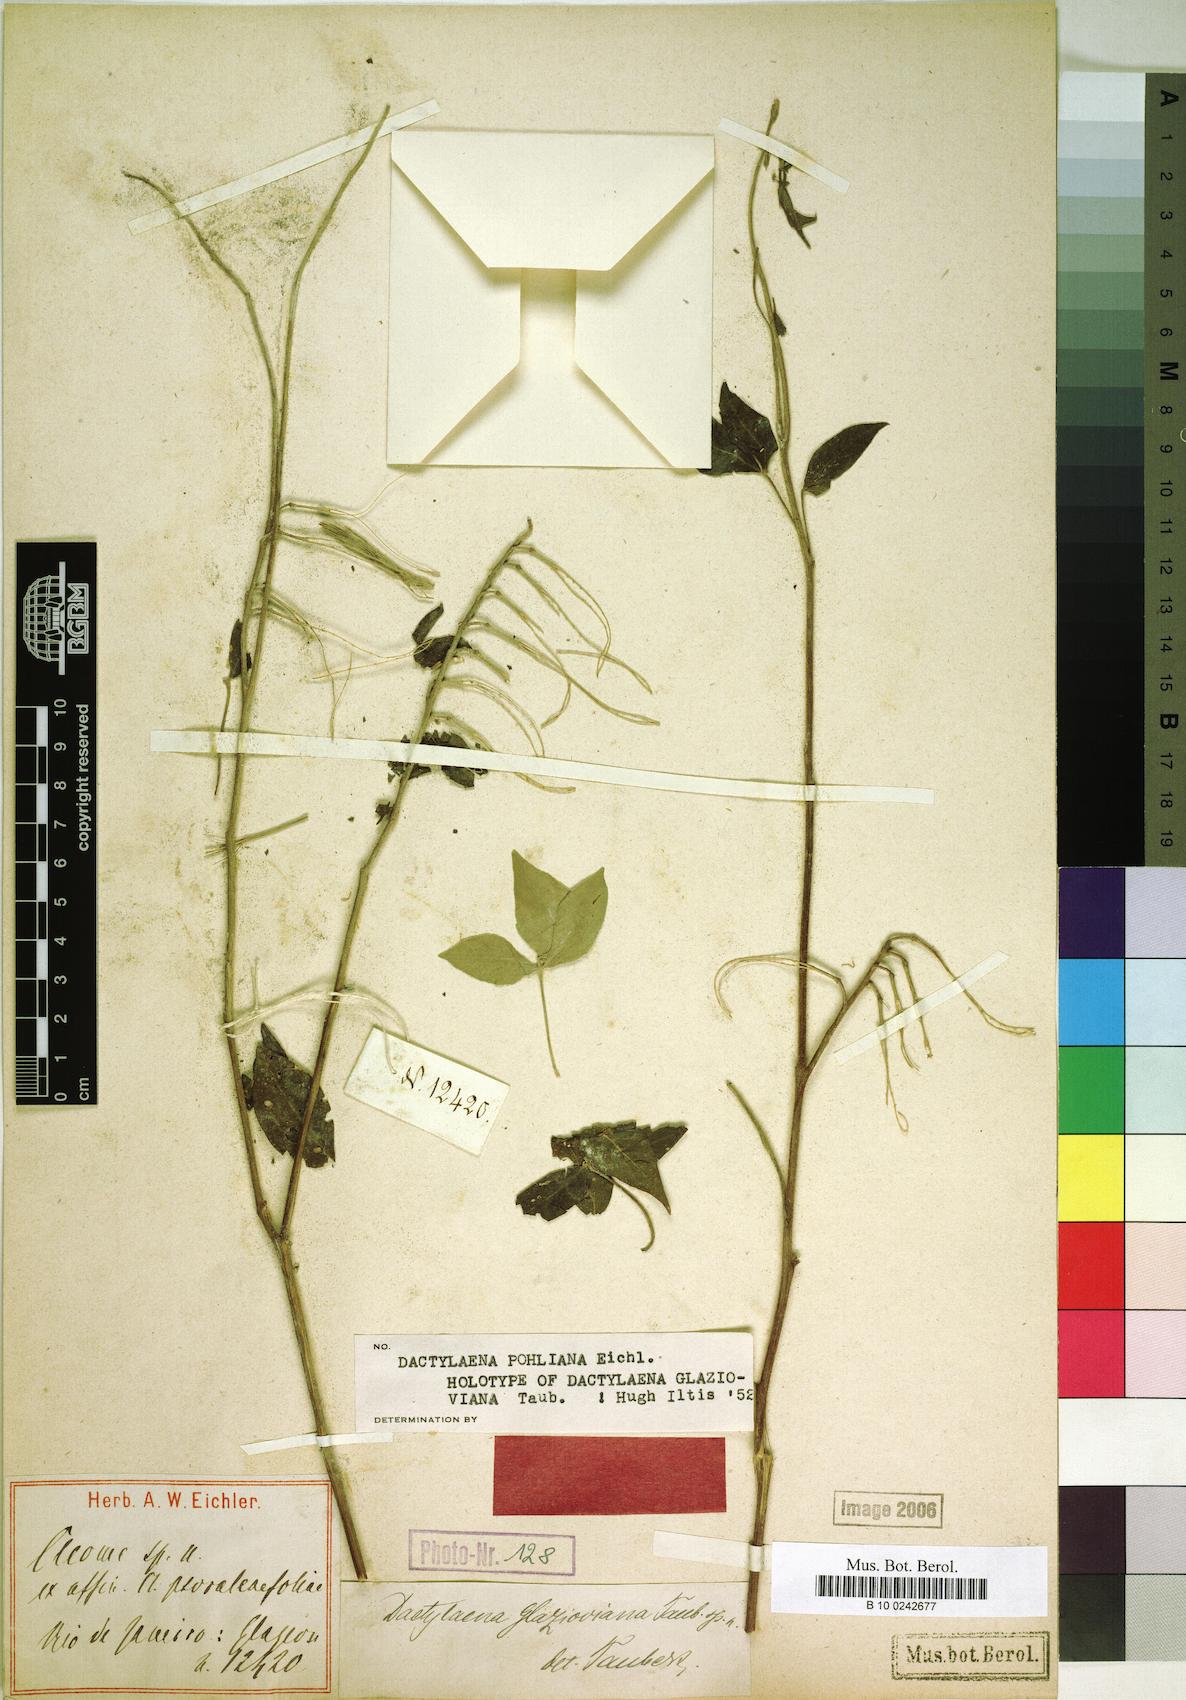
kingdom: Plantae
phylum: Tracheophyta
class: Magnoliopsida
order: Brassicales
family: Cleomaceae
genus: Dactylaena
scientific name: Dactylaena pohliana
